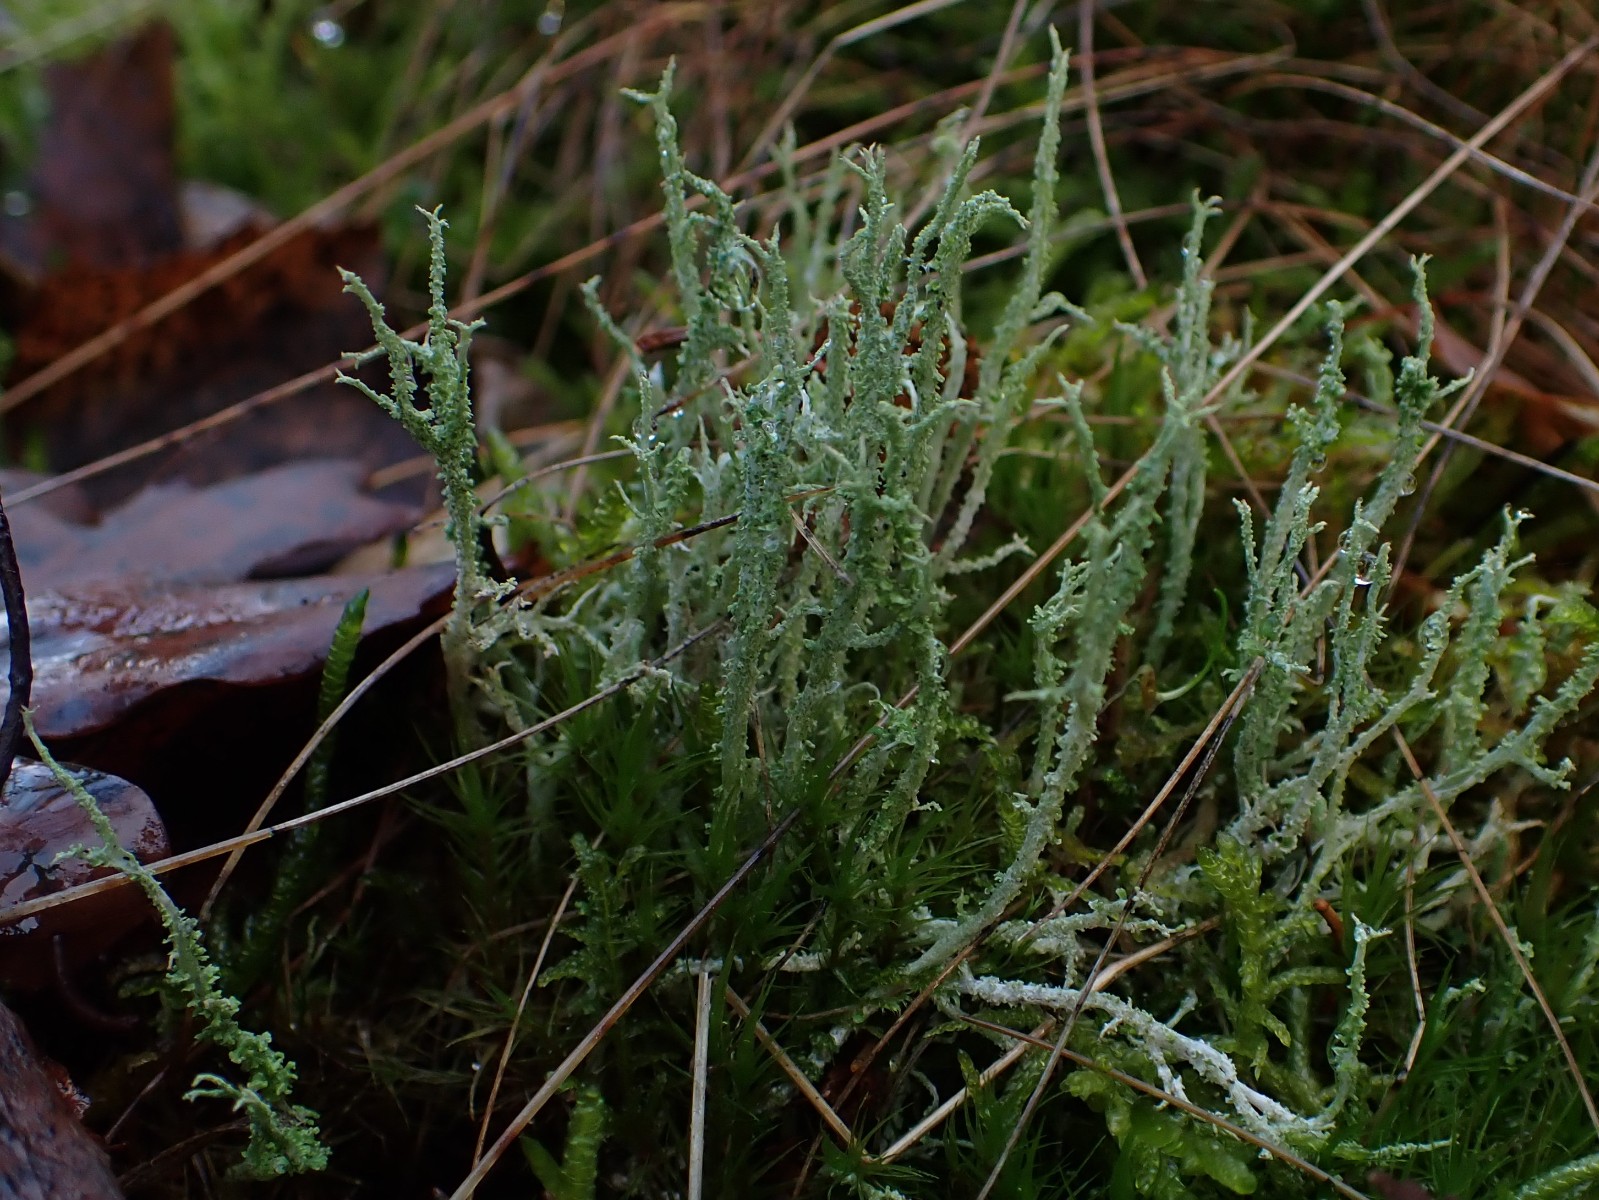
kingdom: Fungi
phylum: Ascomycota
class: Lecanoromycetes
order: Lecanorales
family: Cladoniaceae
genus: Cladonia
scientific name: Cladonia scabriuscula
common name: ru bægerlav
